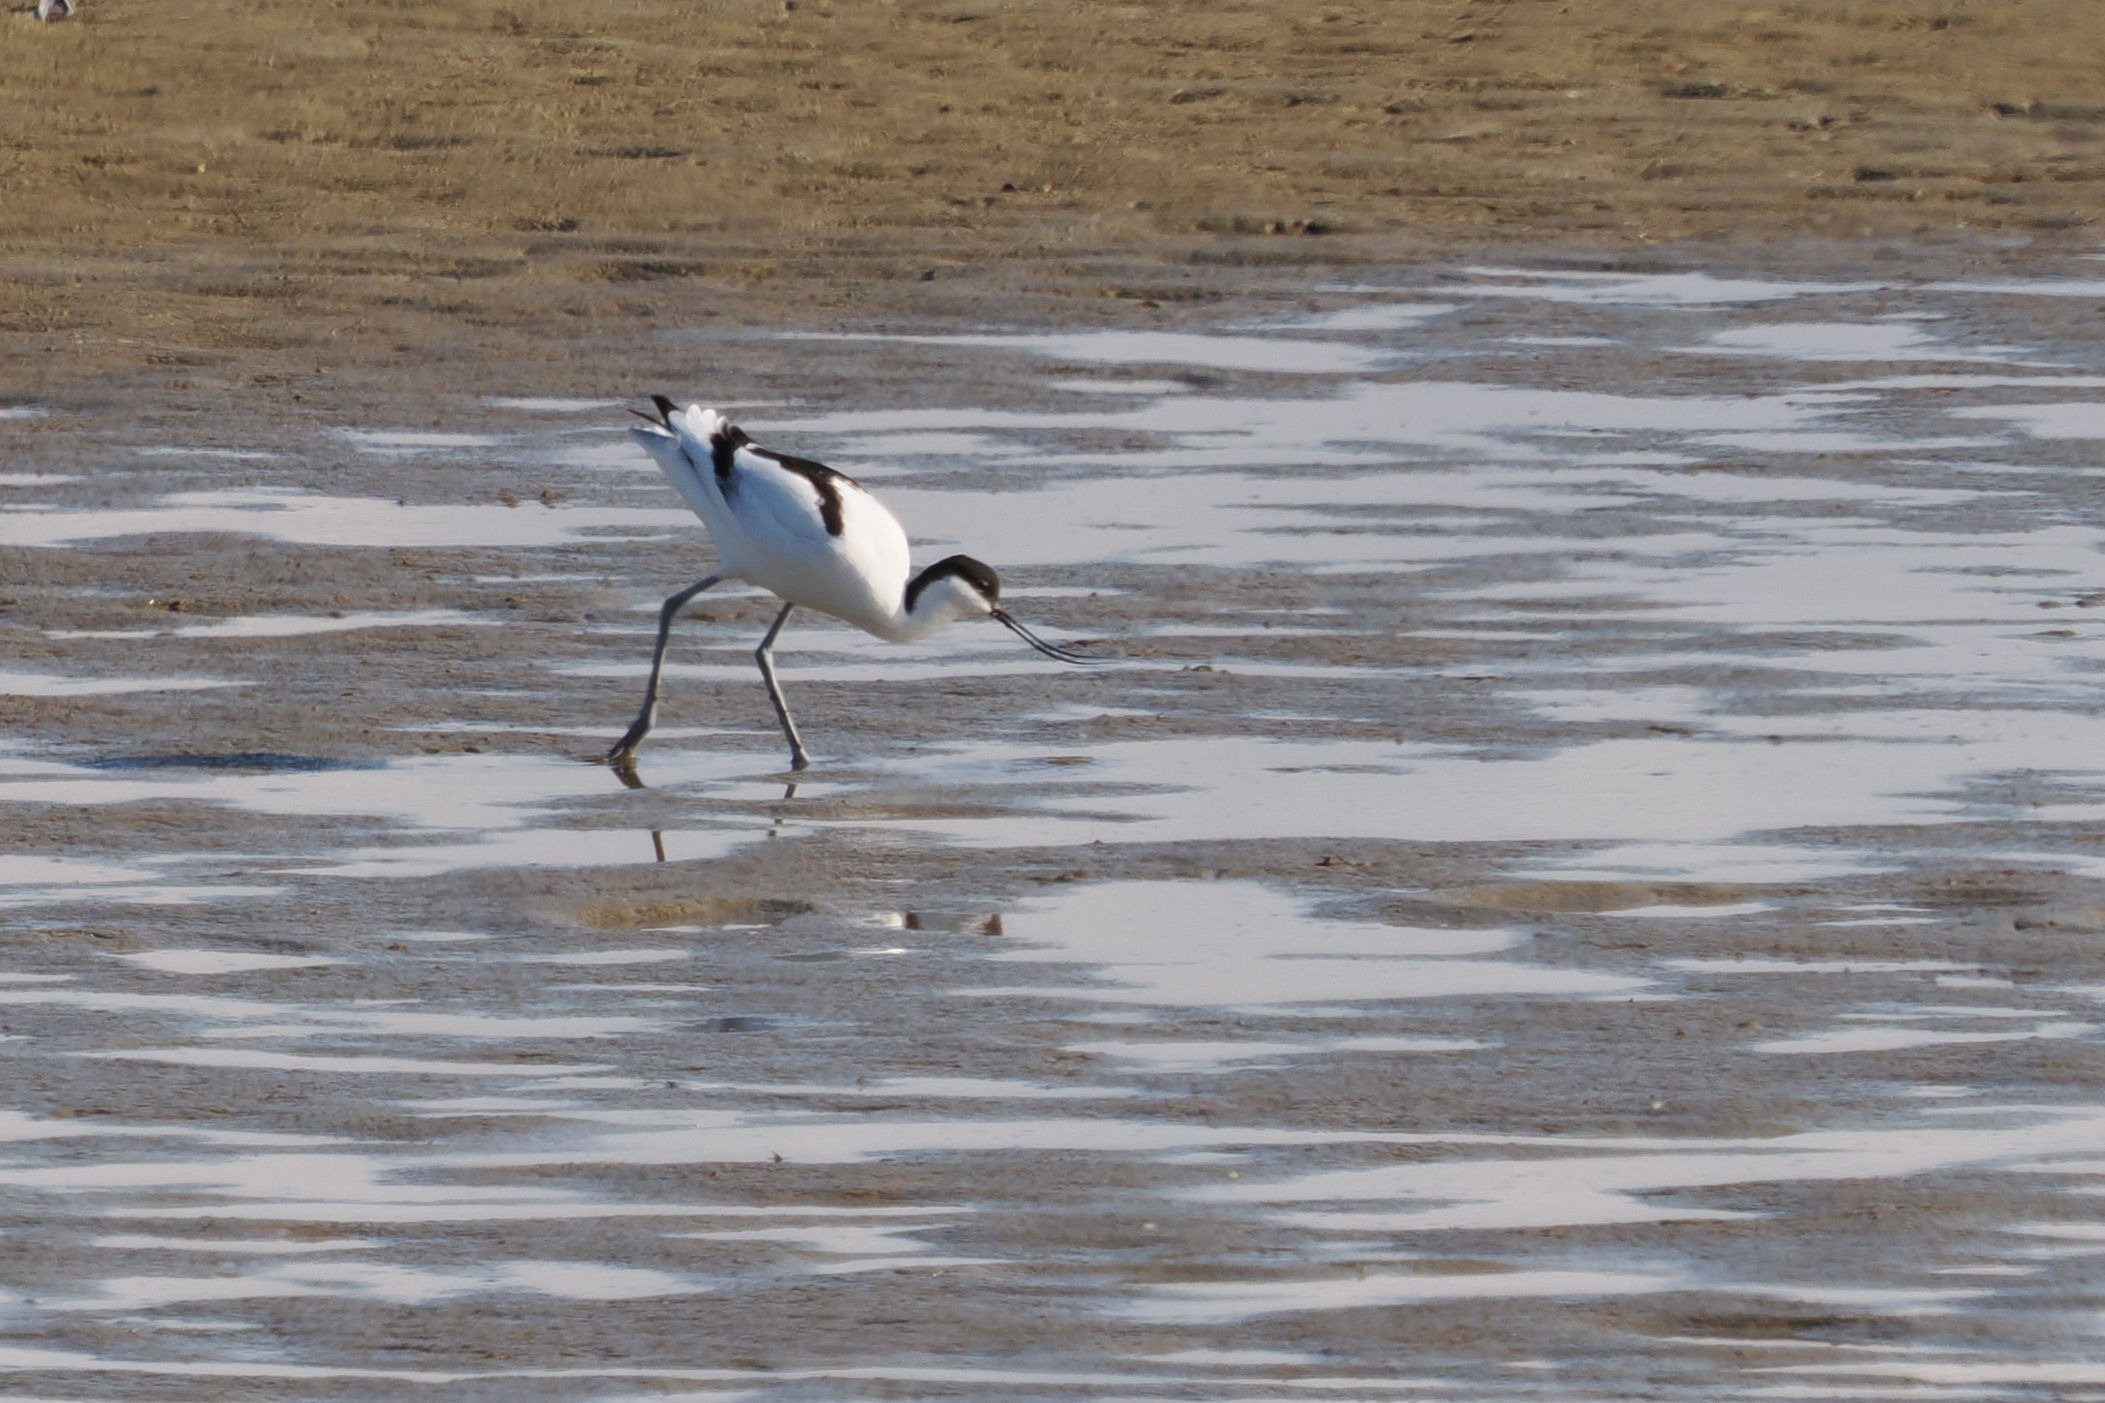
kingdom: Animalia
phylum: Chordata
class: Aves
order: Charadriiformes
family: Recurvirostridae
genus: Recurvirostra
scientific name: Recurvirostra avosetta
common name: Klyde
